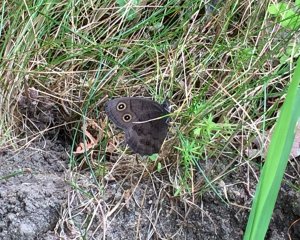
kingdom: Animalia
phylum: Arthropoda
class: Insecta
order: Lepidoptera
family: Nymphalidae
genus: Cercyonis
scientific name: Cercyonis pegala
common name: Common Wood-Nymph
